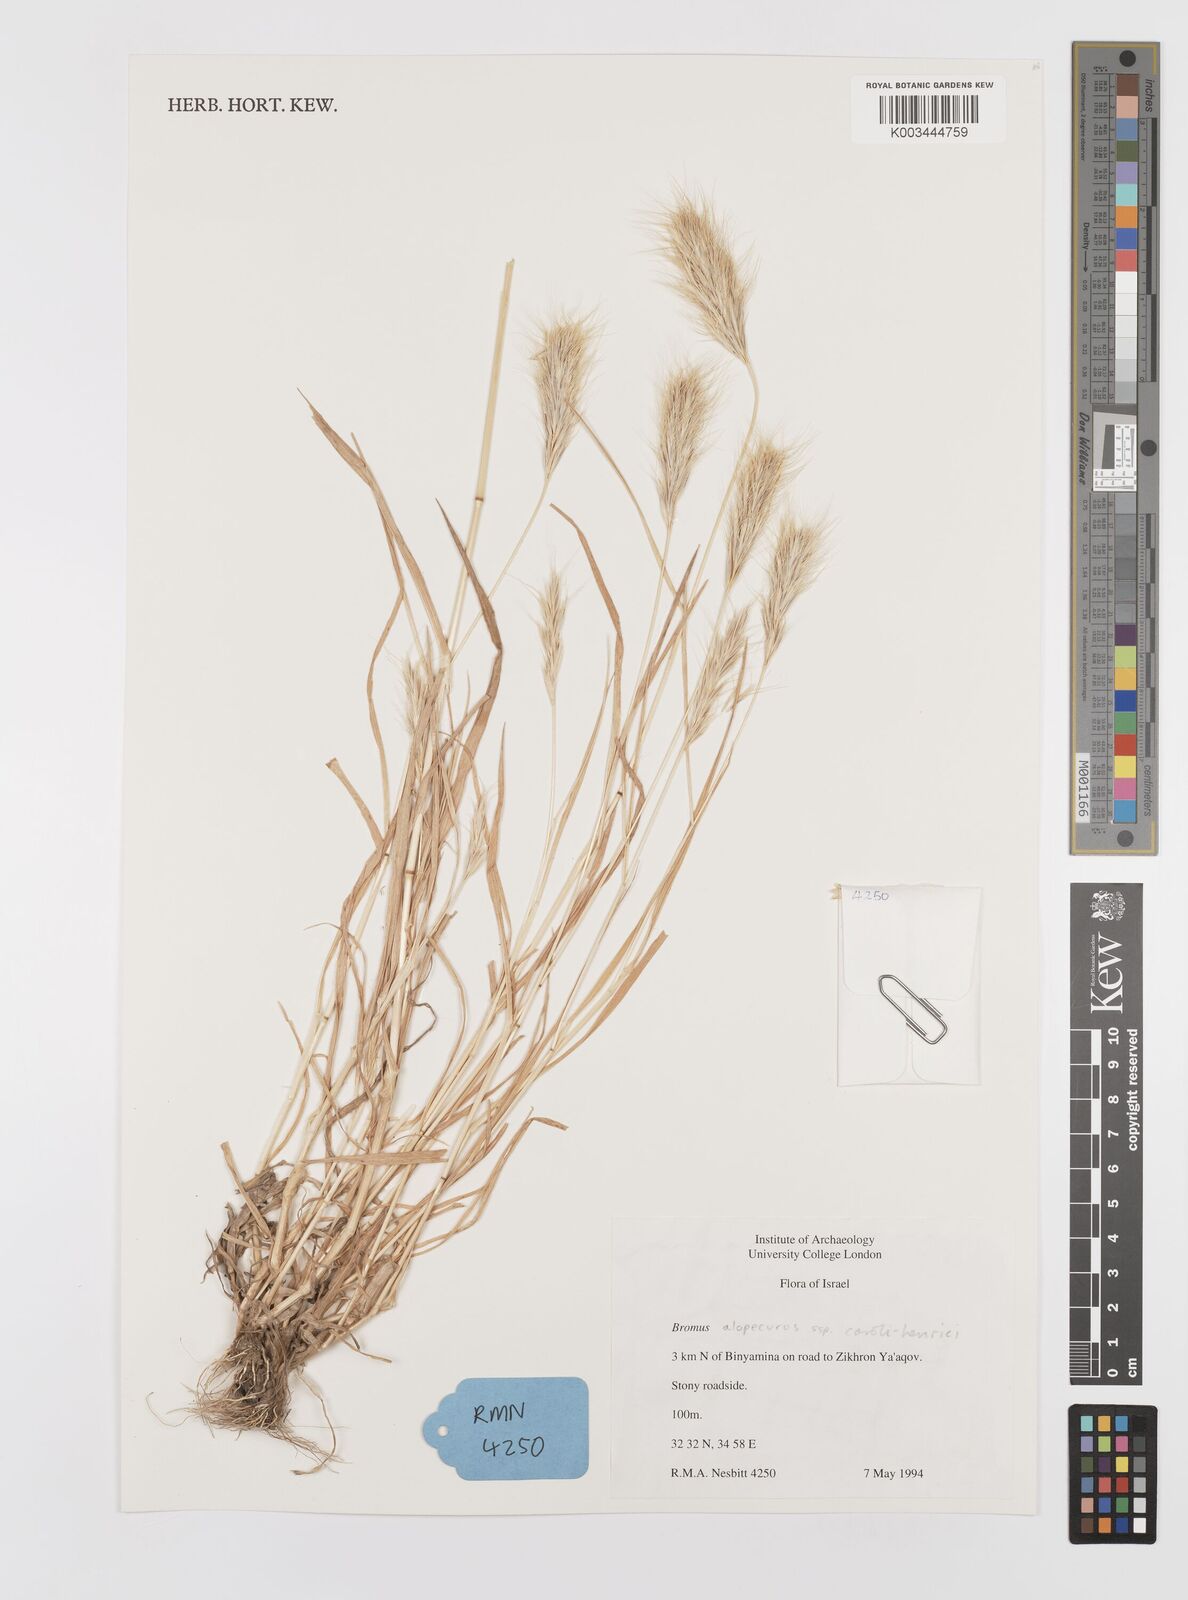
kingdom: Plantae
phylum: Tracheophyta
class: Liliopsida
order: Poales
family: Poaceae
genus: Bromus
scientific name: Bromus alopecuros
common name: Weedy brome
